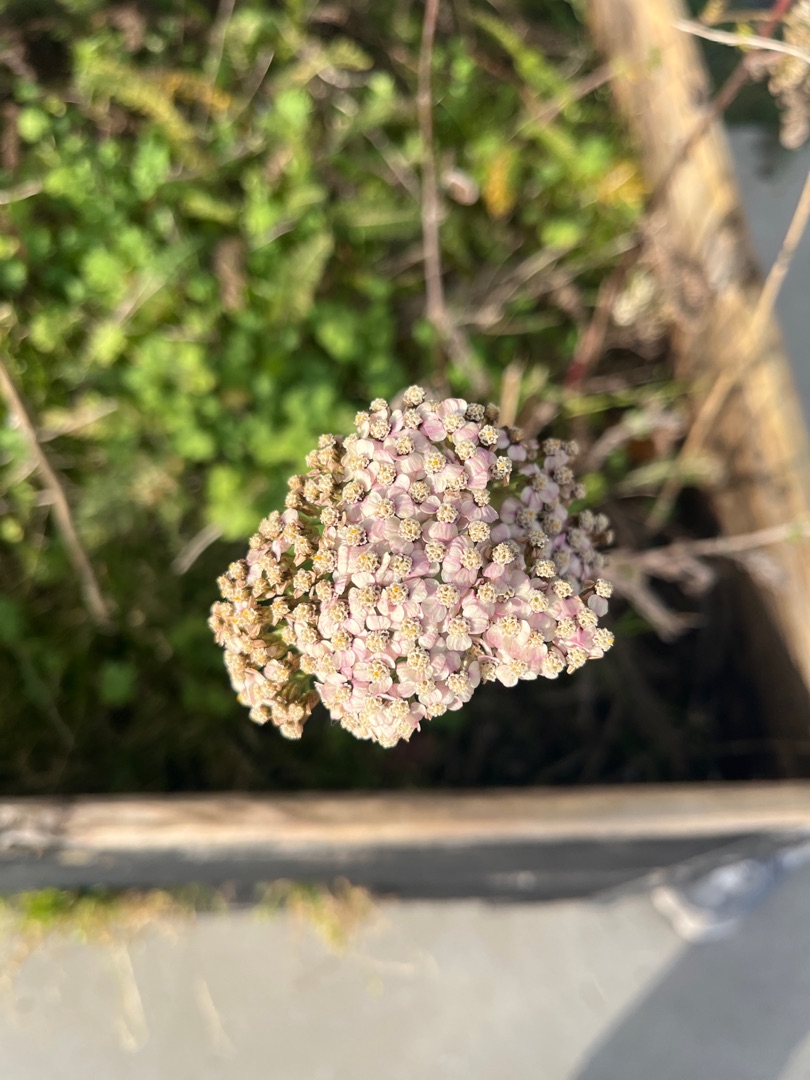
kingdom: Plantae
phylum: Tracheophyta
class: Magnoliopsida
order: Asterales
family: Asteraceae
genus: Achillea
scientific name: Achillea millefolium
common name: Almindelig røllike
